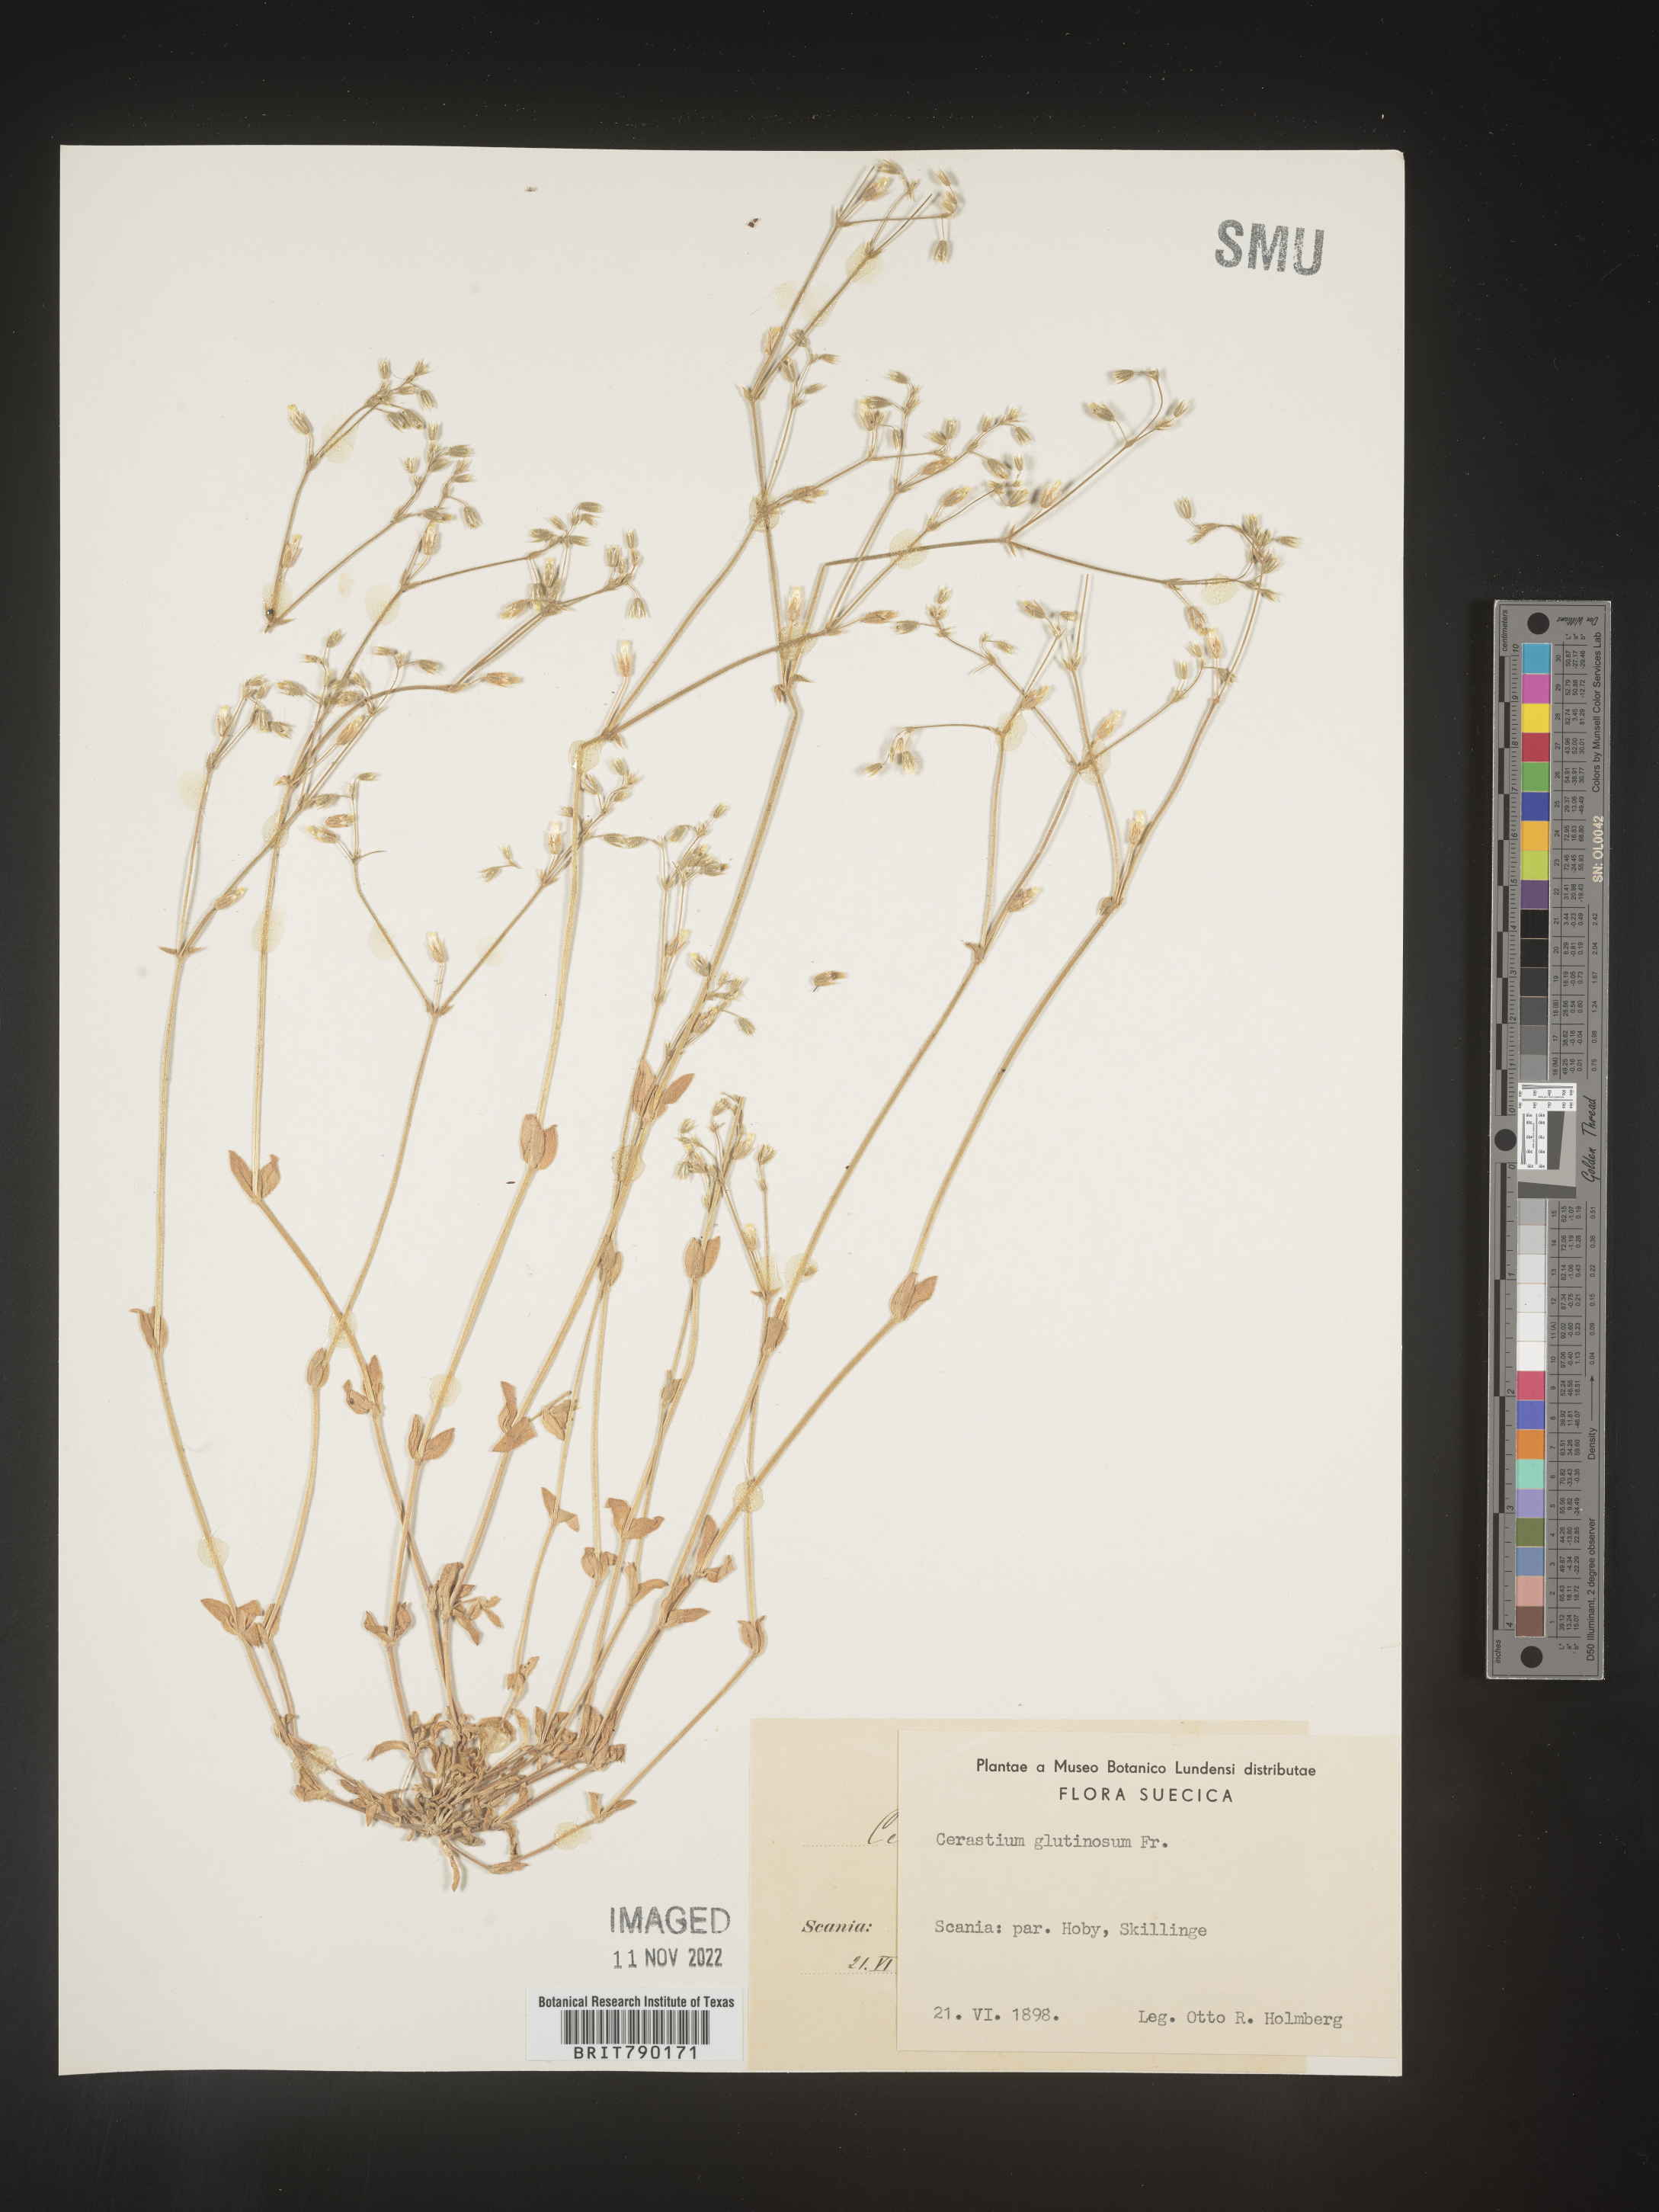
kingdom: Plantae
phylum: Tracheophyta
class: Magnoliopsida
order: Caryophyllales
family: Caryophyllaceae
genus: Cerastium
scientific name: Cerastium
